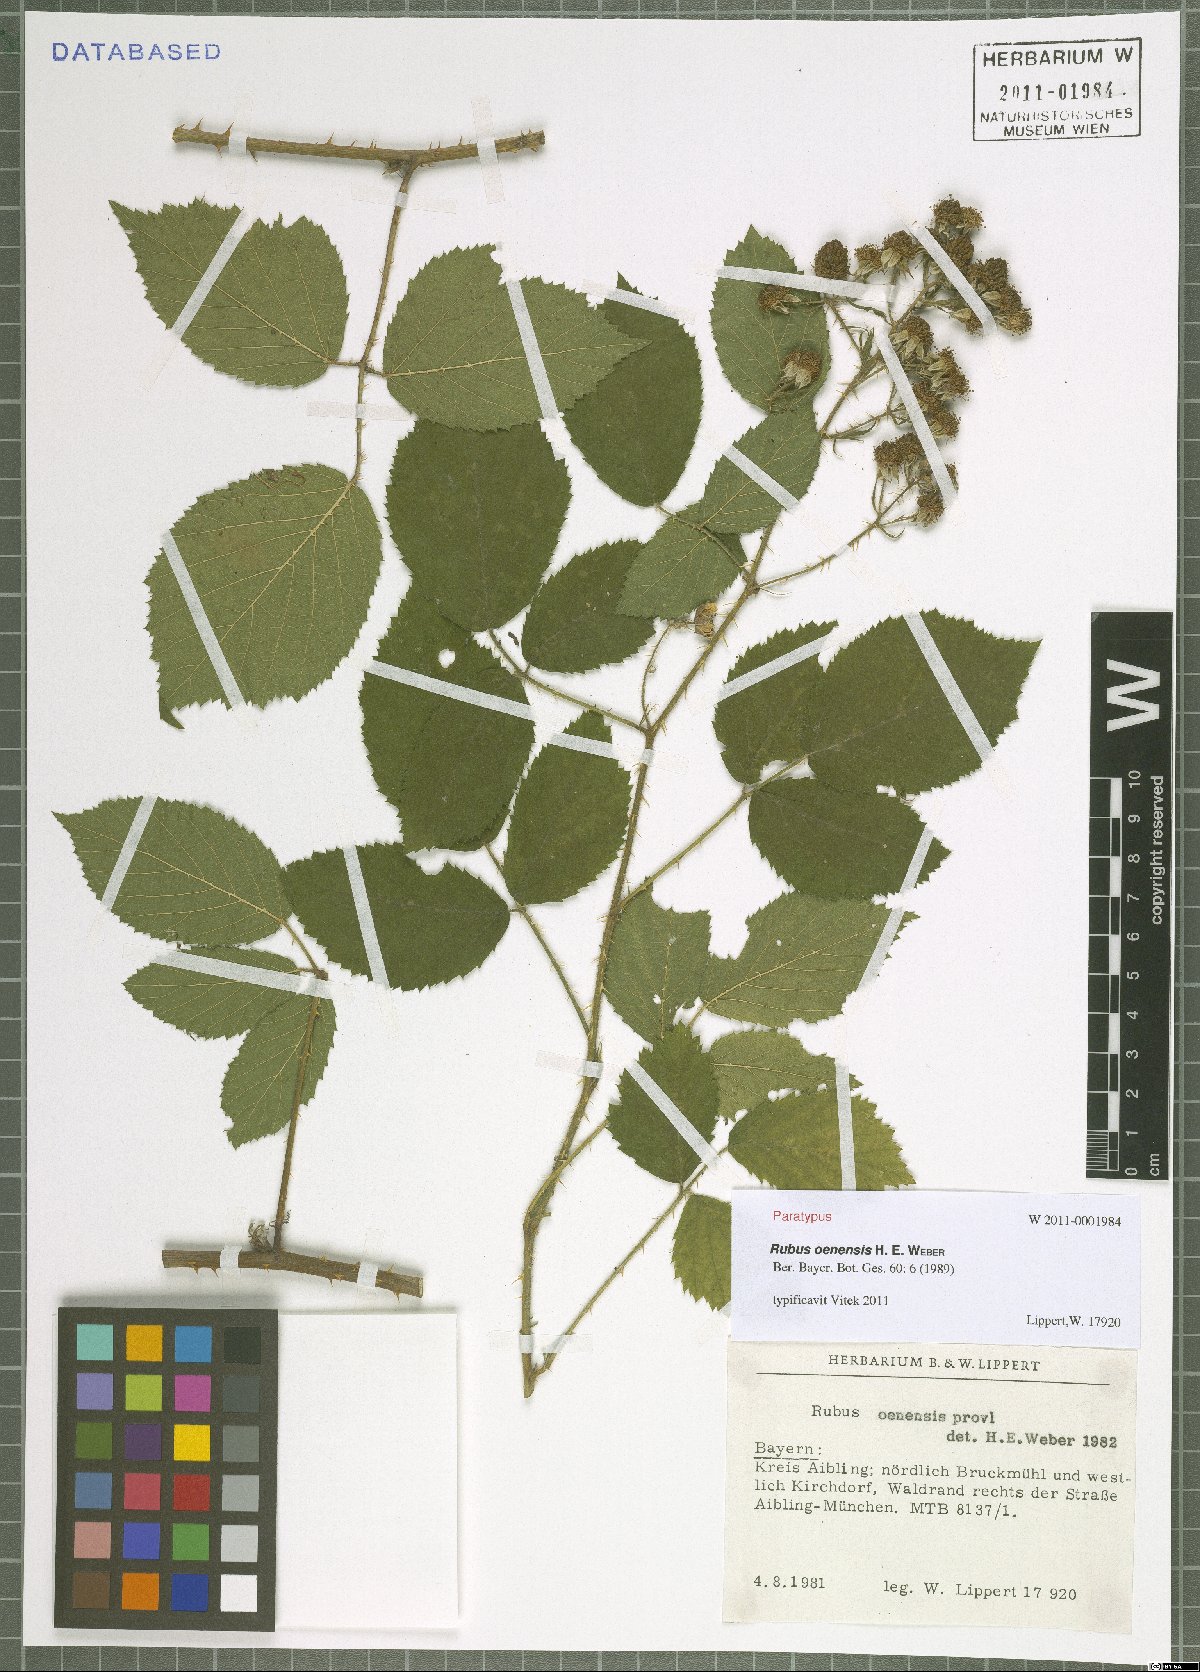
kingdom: Plantae
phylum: Tracheophyta
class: Magnoliopsida
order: Rosales
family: Rosaceae
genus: Rubus
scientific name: Rubus oenensis
